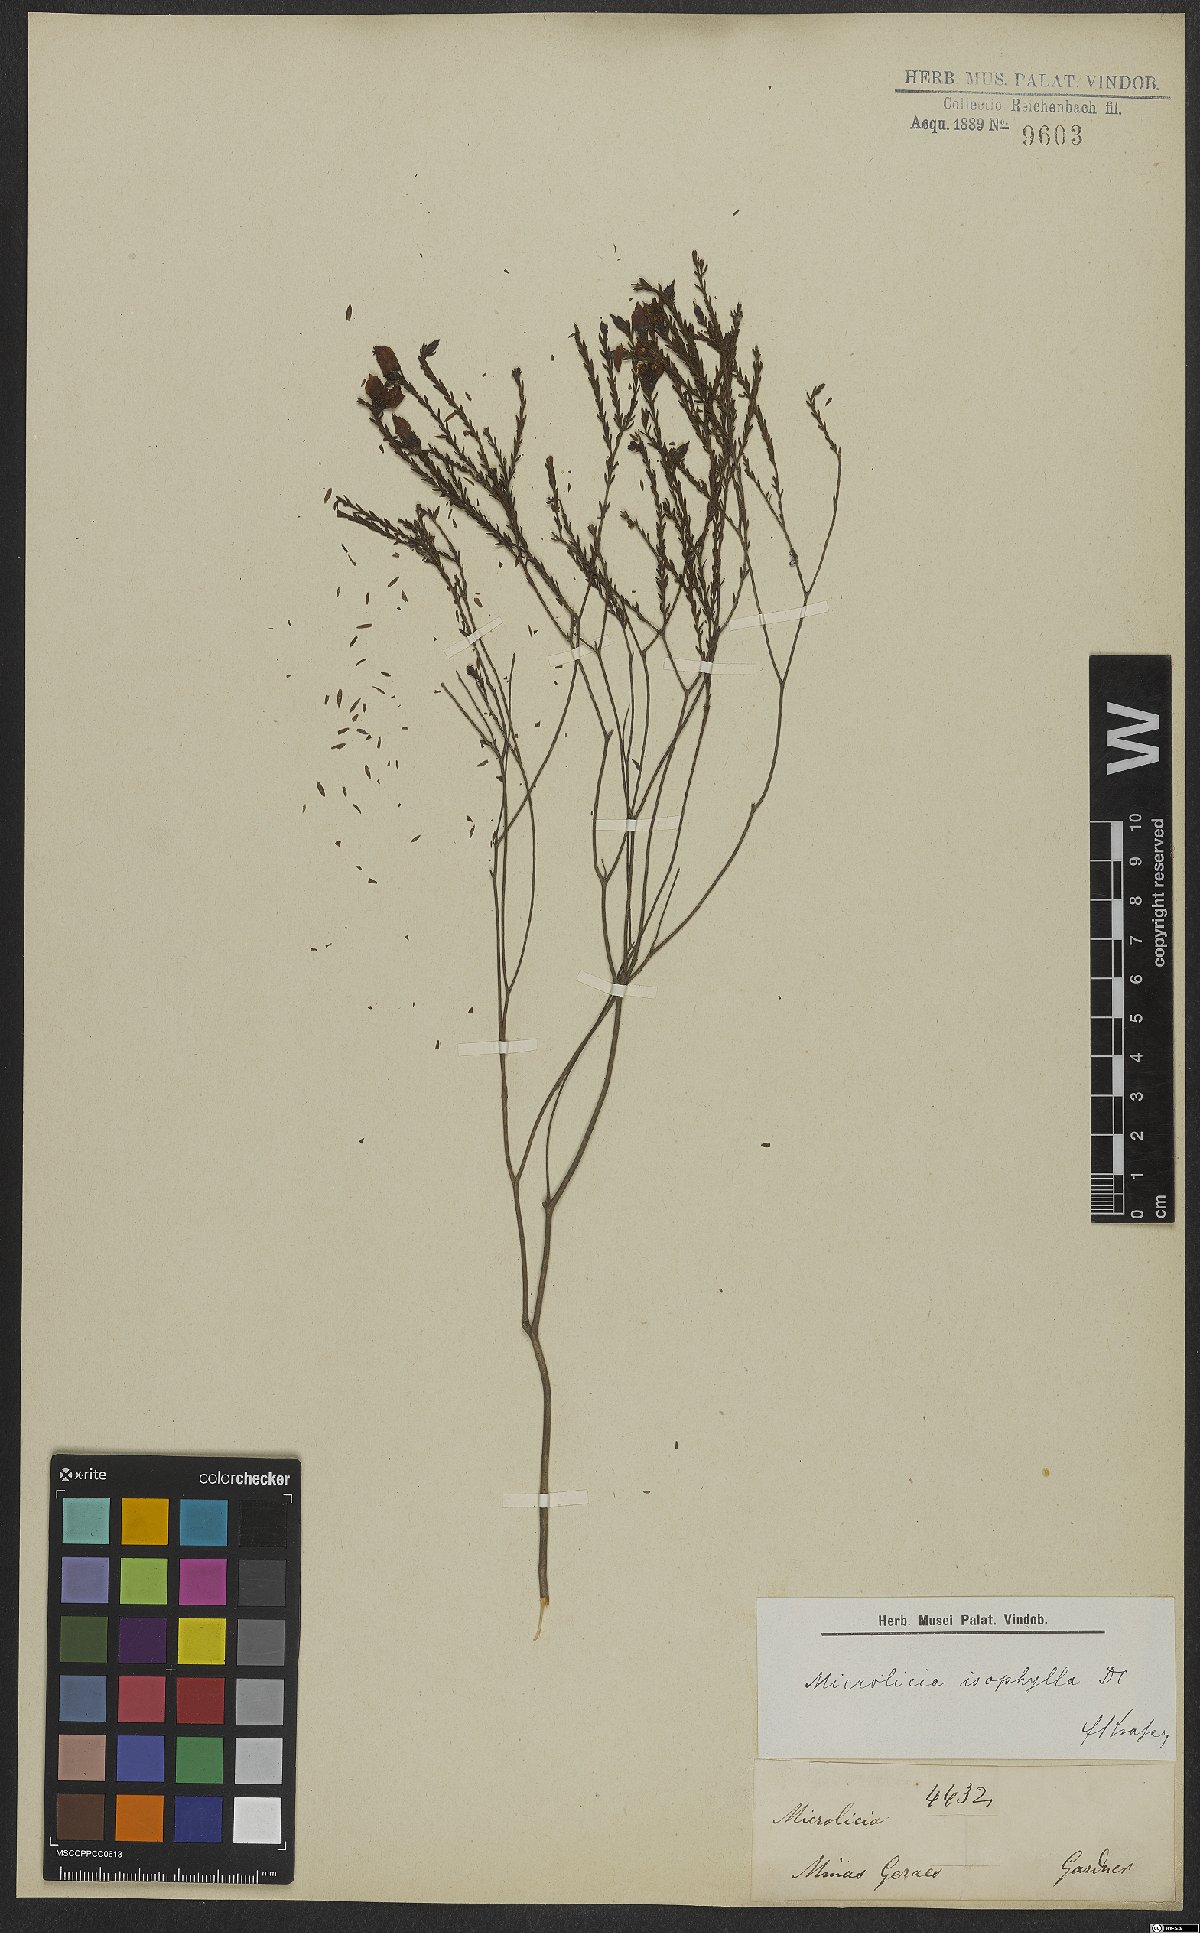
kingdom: Plantae
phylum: Tracheophyta
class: Magnoliopsida
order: Myrtales
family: Melastomataceae
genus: Microlicia
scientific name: Microlicia isophylla
